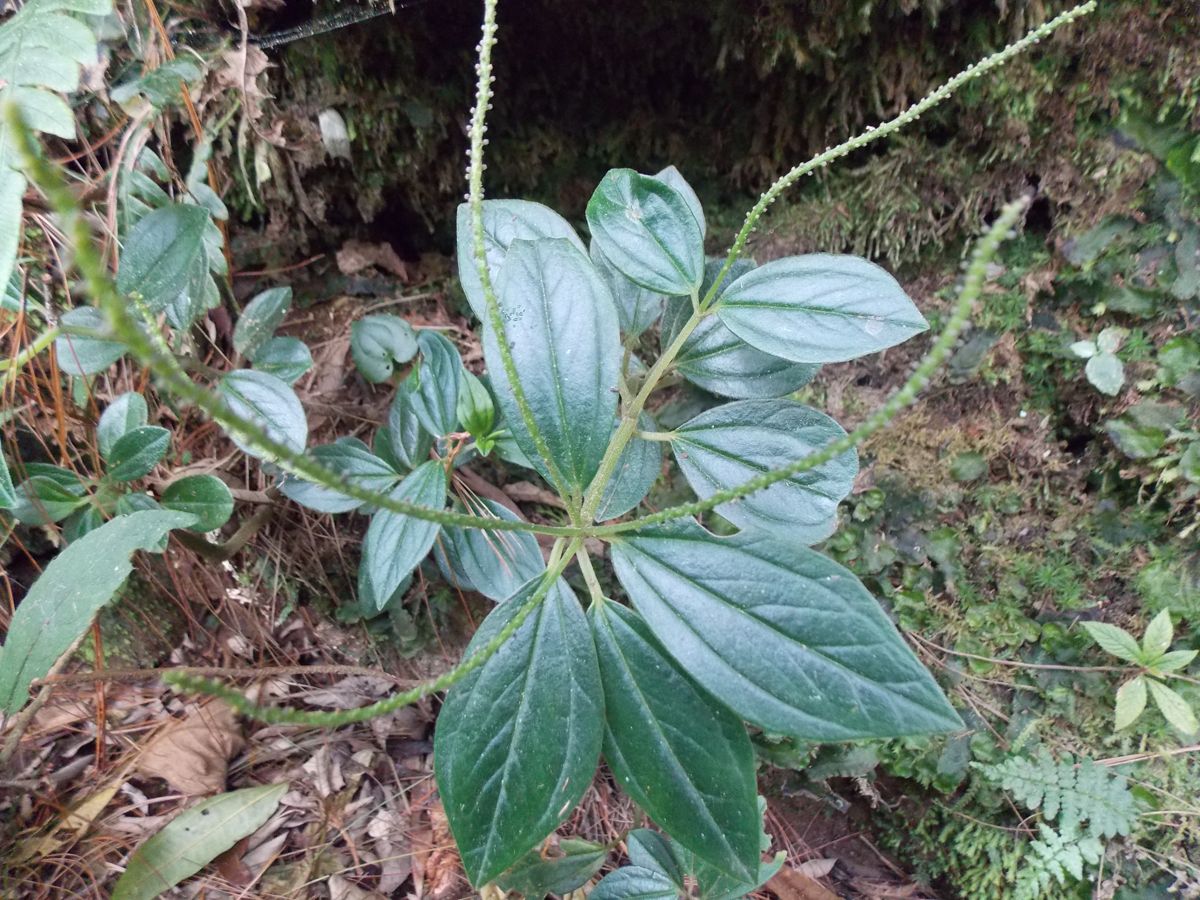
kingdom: Plantae
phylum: Tracheophyta
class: Magnoliopsida
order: Piperales
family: Piperaceae
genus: Peperomia
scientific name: Peperomia
